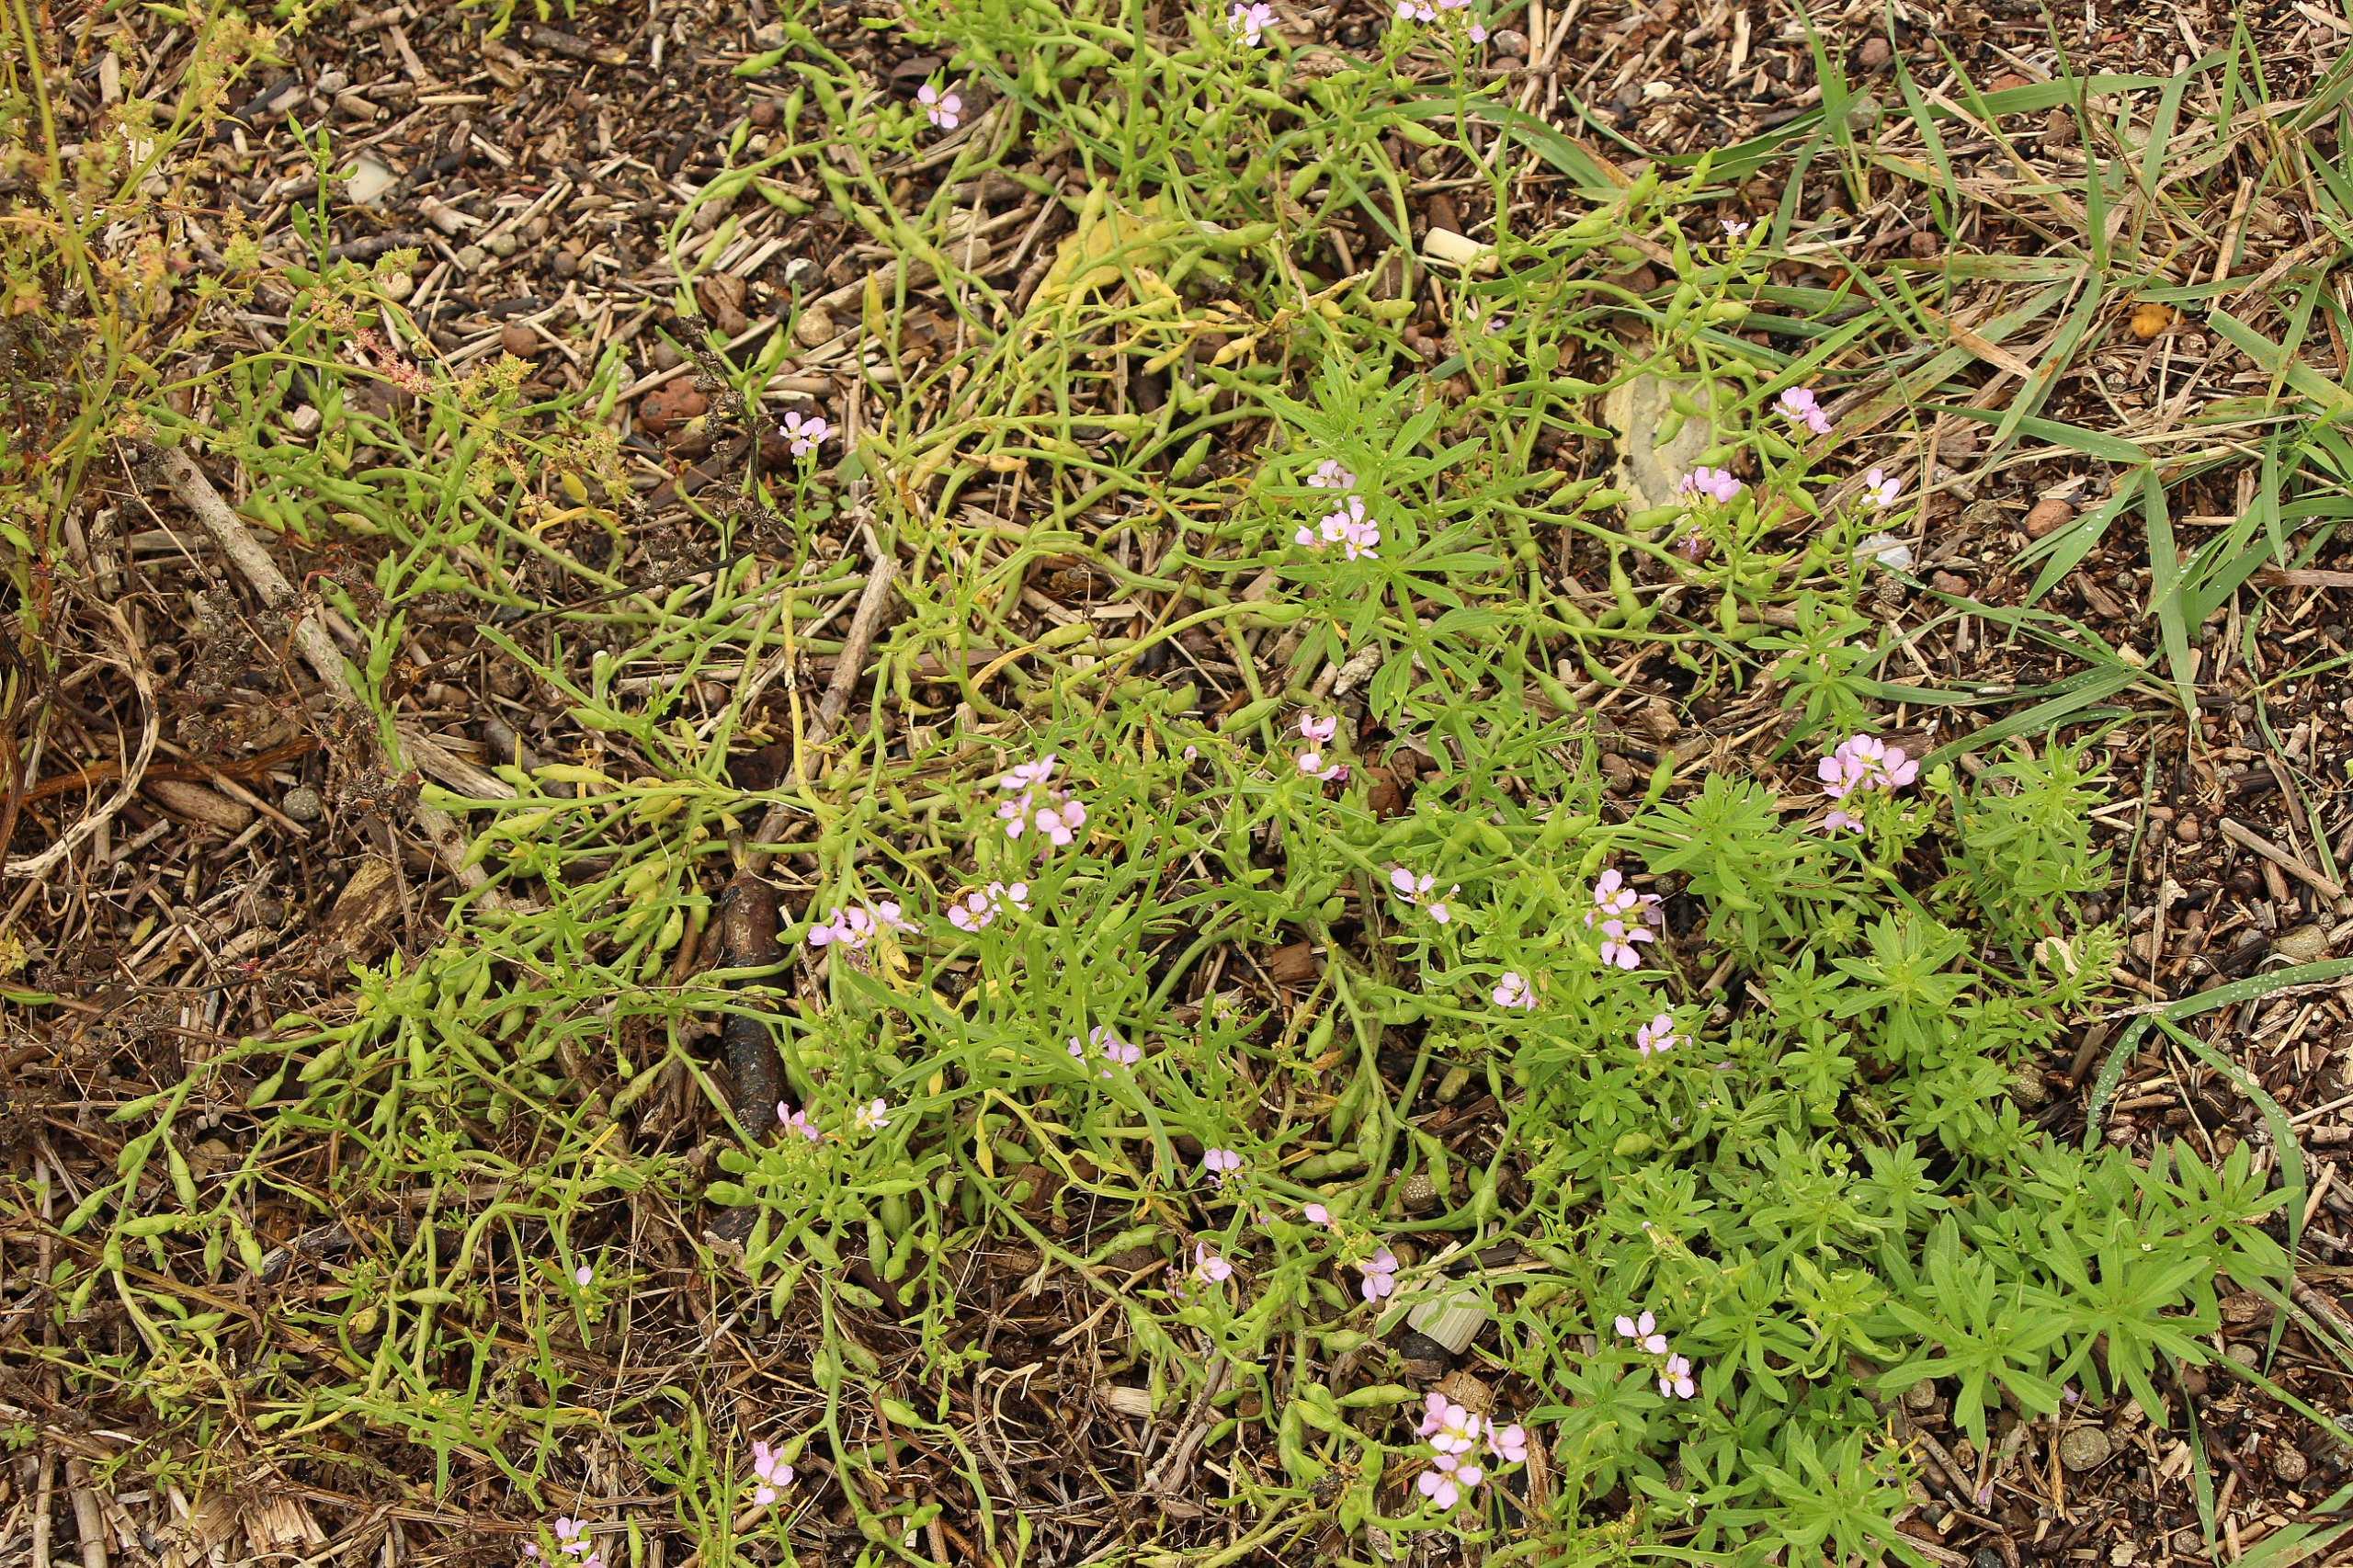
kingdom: Plantae
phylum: Tracheophyta
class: Magnoliopsida
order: Brassicales
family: Brassicaceae
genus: Cakile
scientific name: Cakile maritima
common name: Strandsennep
